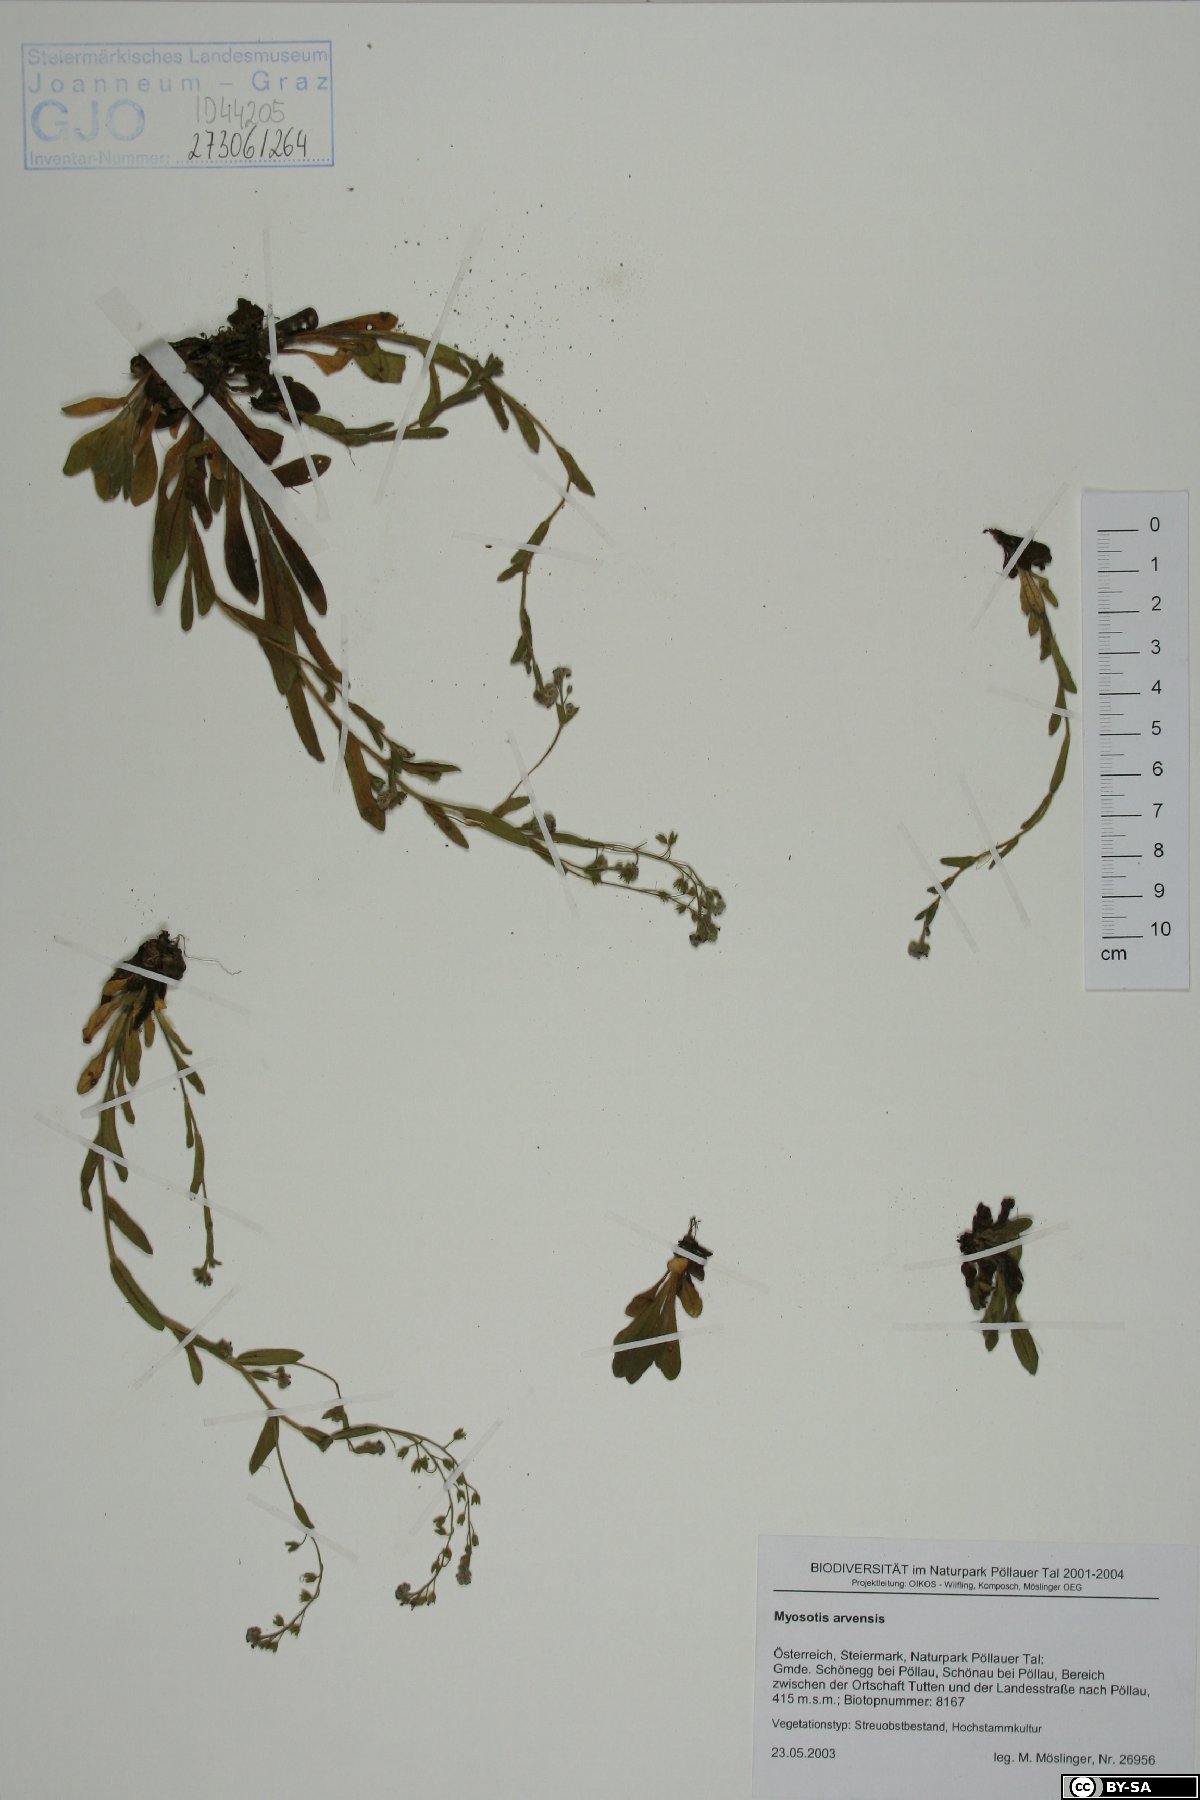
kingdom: Plantae
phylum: Tracheophyta
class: Magnoliopsida
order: Boraginales
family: Boraginaceae
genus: Myosotis
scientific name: Myosotis arvensis
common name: Field forget-me-not
